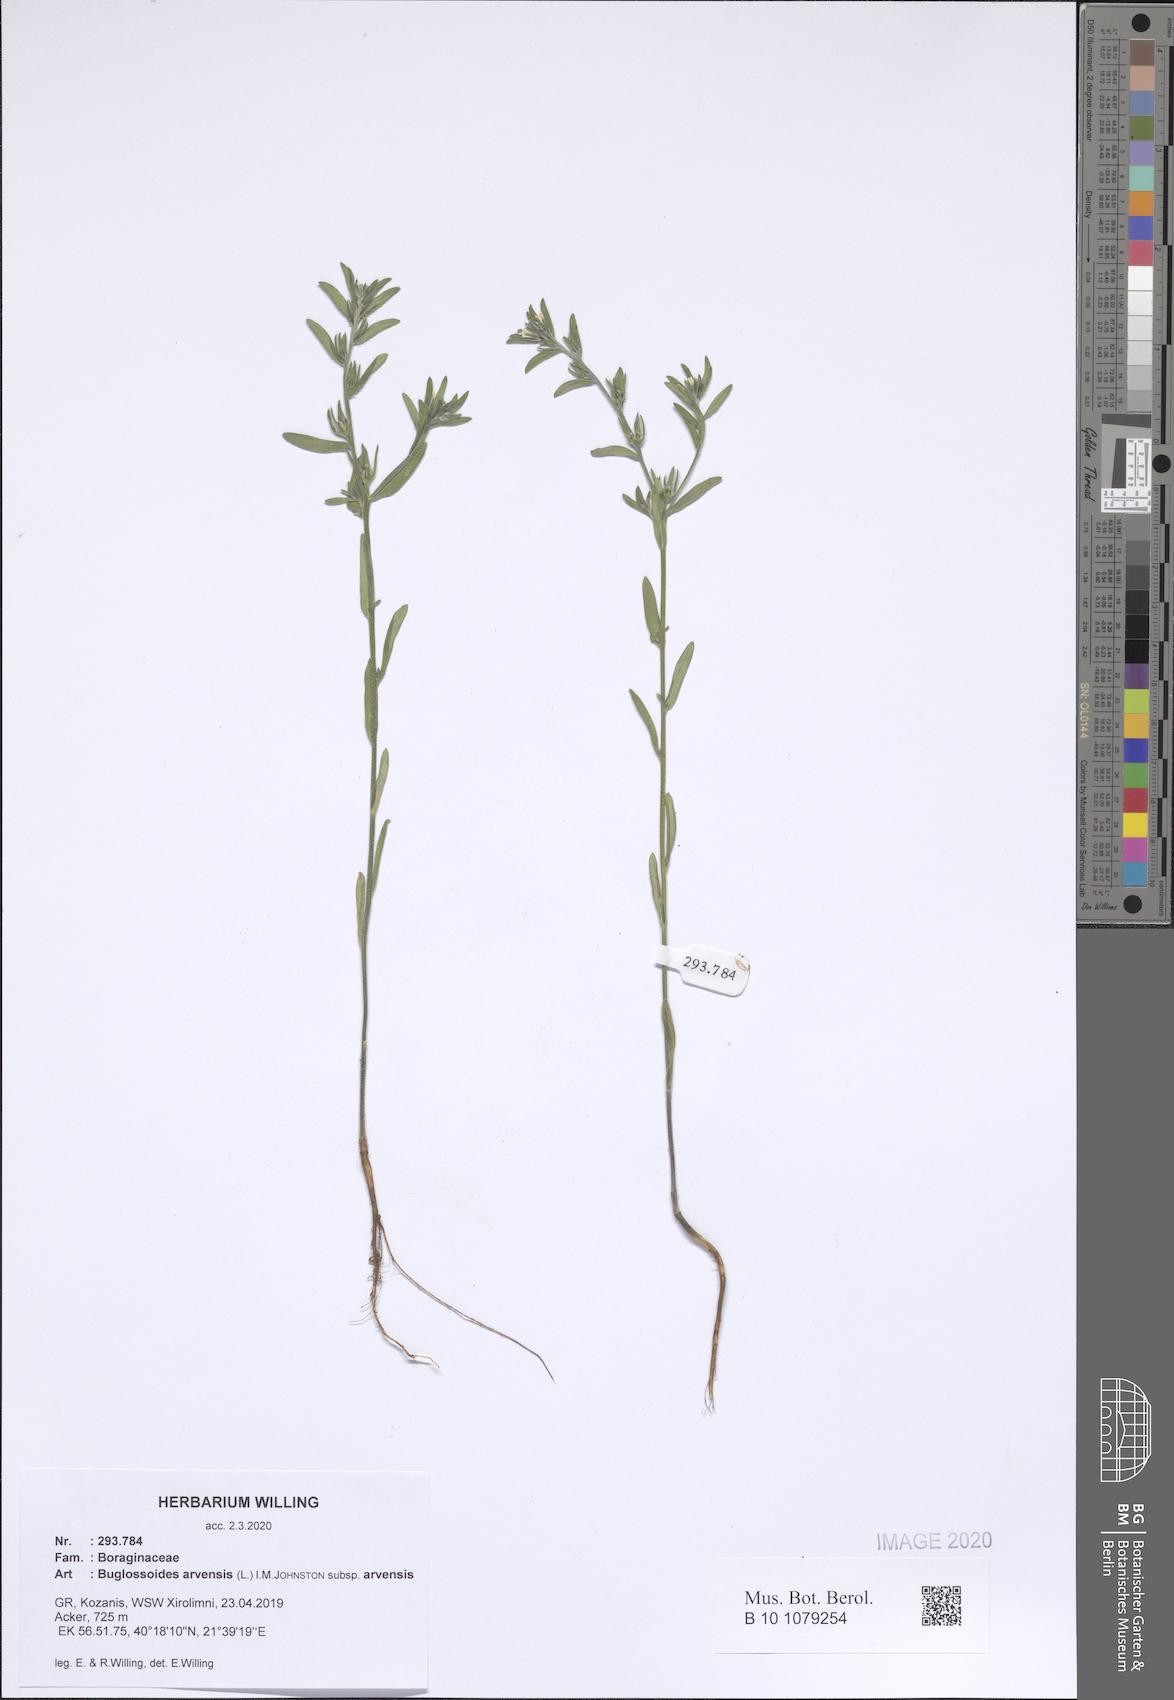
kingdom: Plantae
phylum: Tracheophyta
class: Magnoliopsida
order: Boraginales
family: Boraginaceae
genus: Buglossoides
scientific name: Buglossoides arvensis
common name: Corn gromwell
